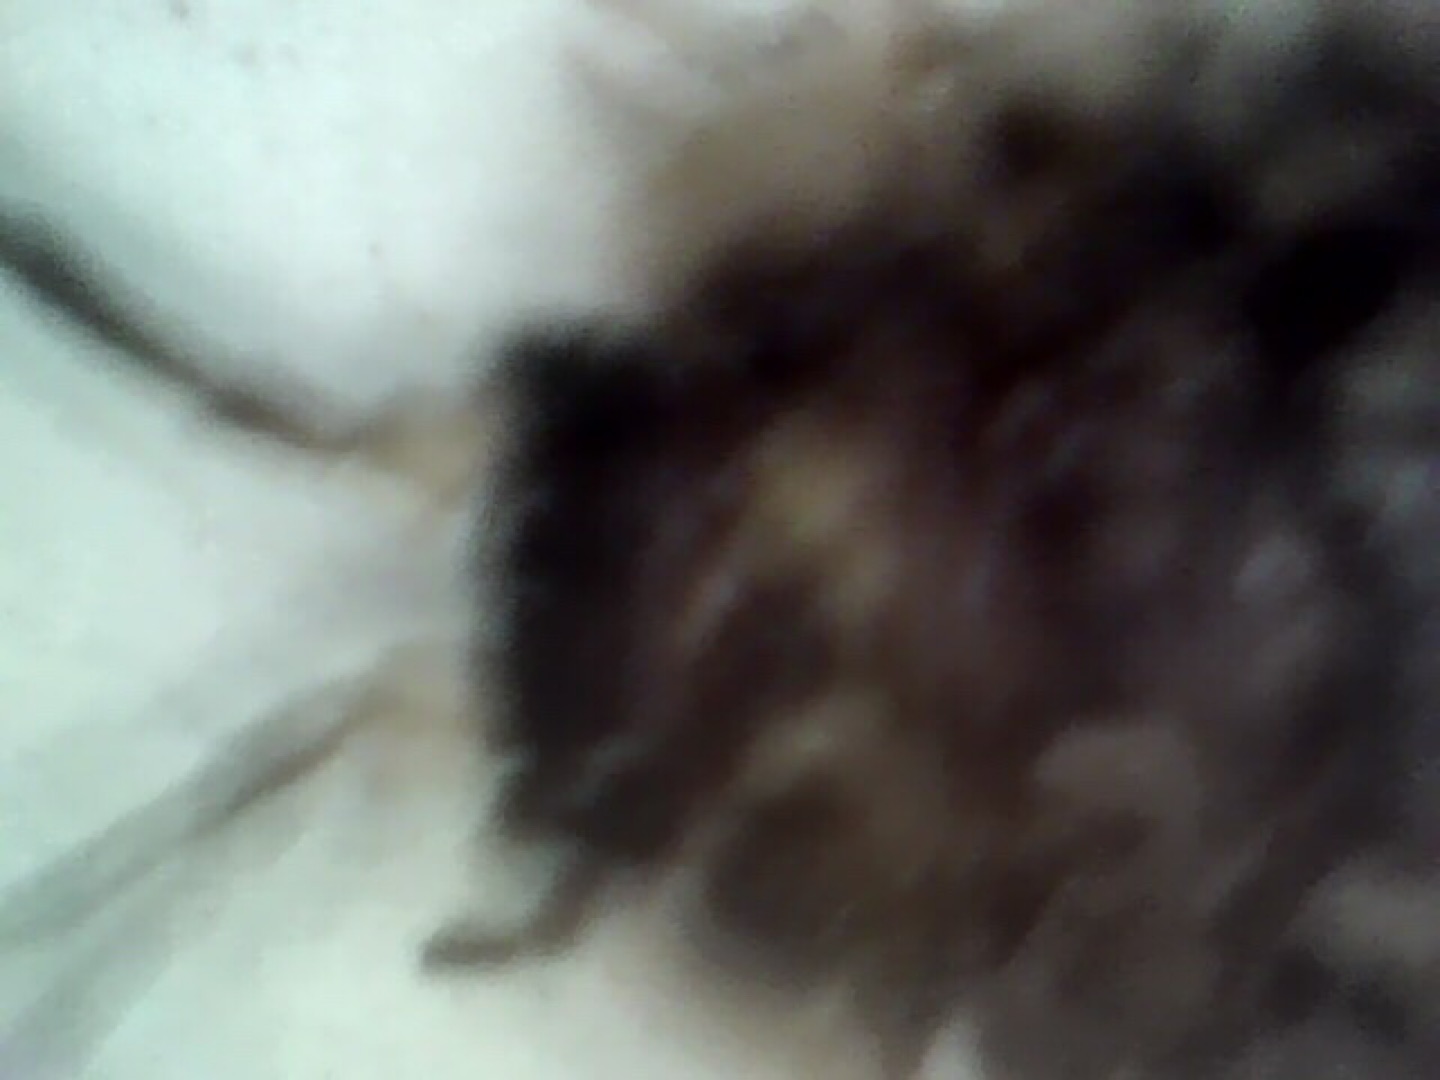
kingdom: Animalia
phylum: Arthropoda
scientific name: Arthropoda
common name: Leddyr
